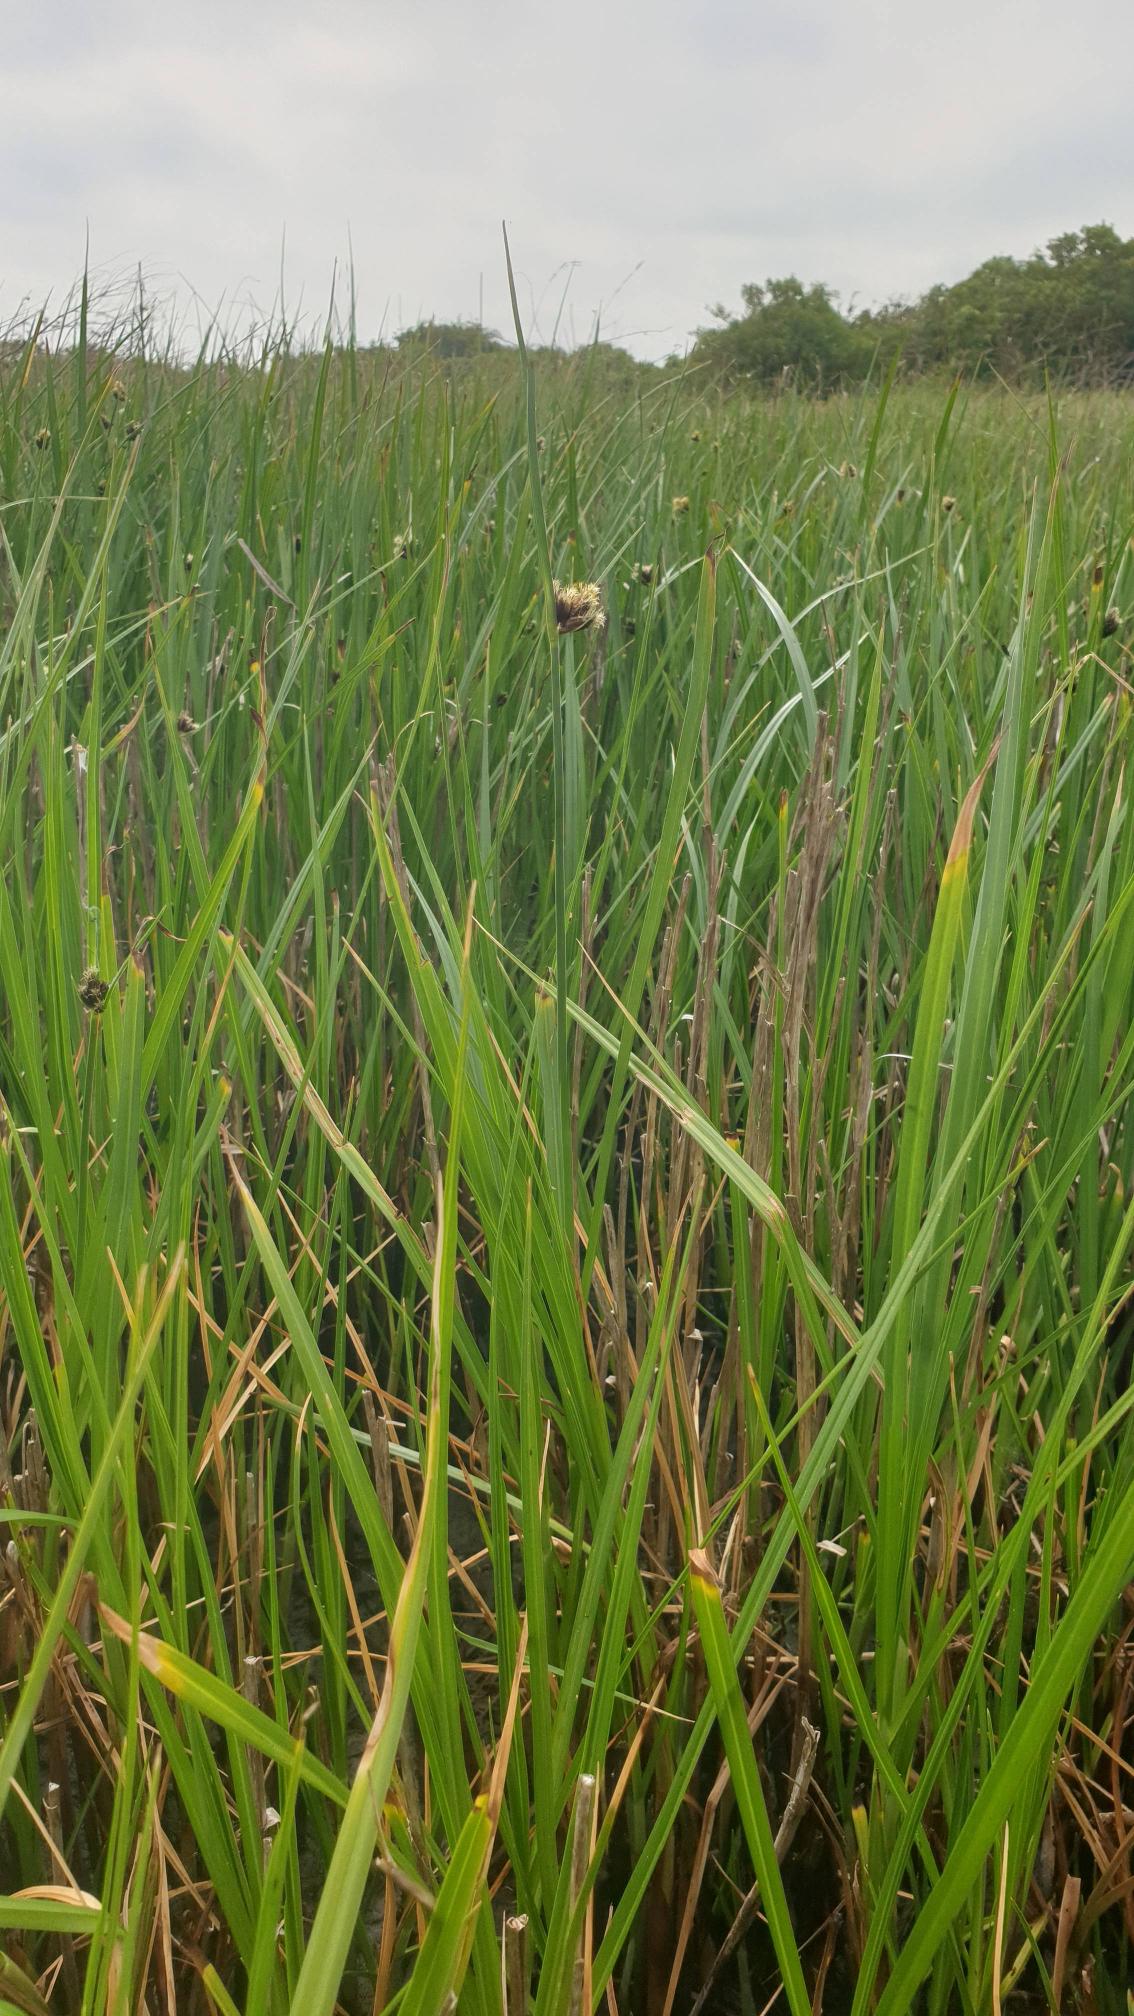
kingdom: Plantae
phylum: Tracheophyta
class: Liliopsida
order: Poales
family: Cyperaceae
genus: Bolboschoenus
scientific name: Bolboschoenus maritimus
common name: Strand-kogleaks
